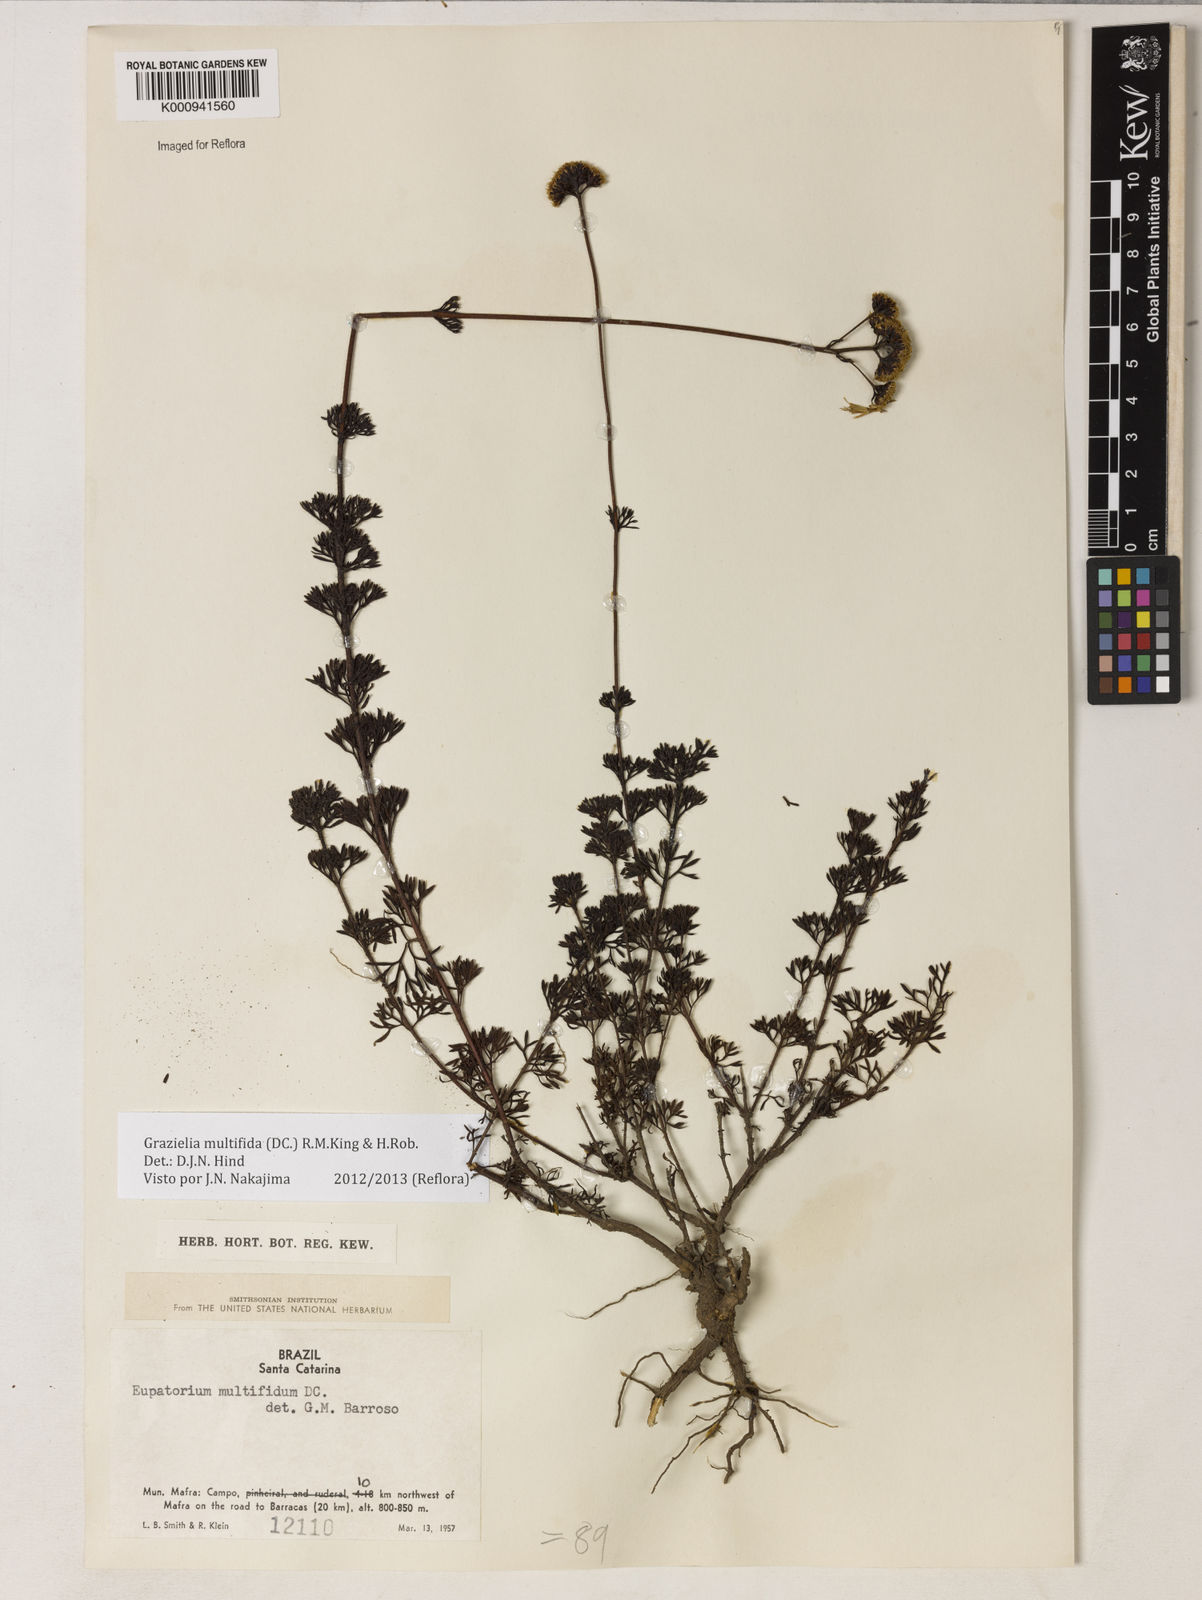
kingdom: Plantae
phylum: Tracheophyta
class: Magnoliopsida
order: Asterales
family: Asteraceae
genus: Grazielia
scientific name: Grazielia multifida
